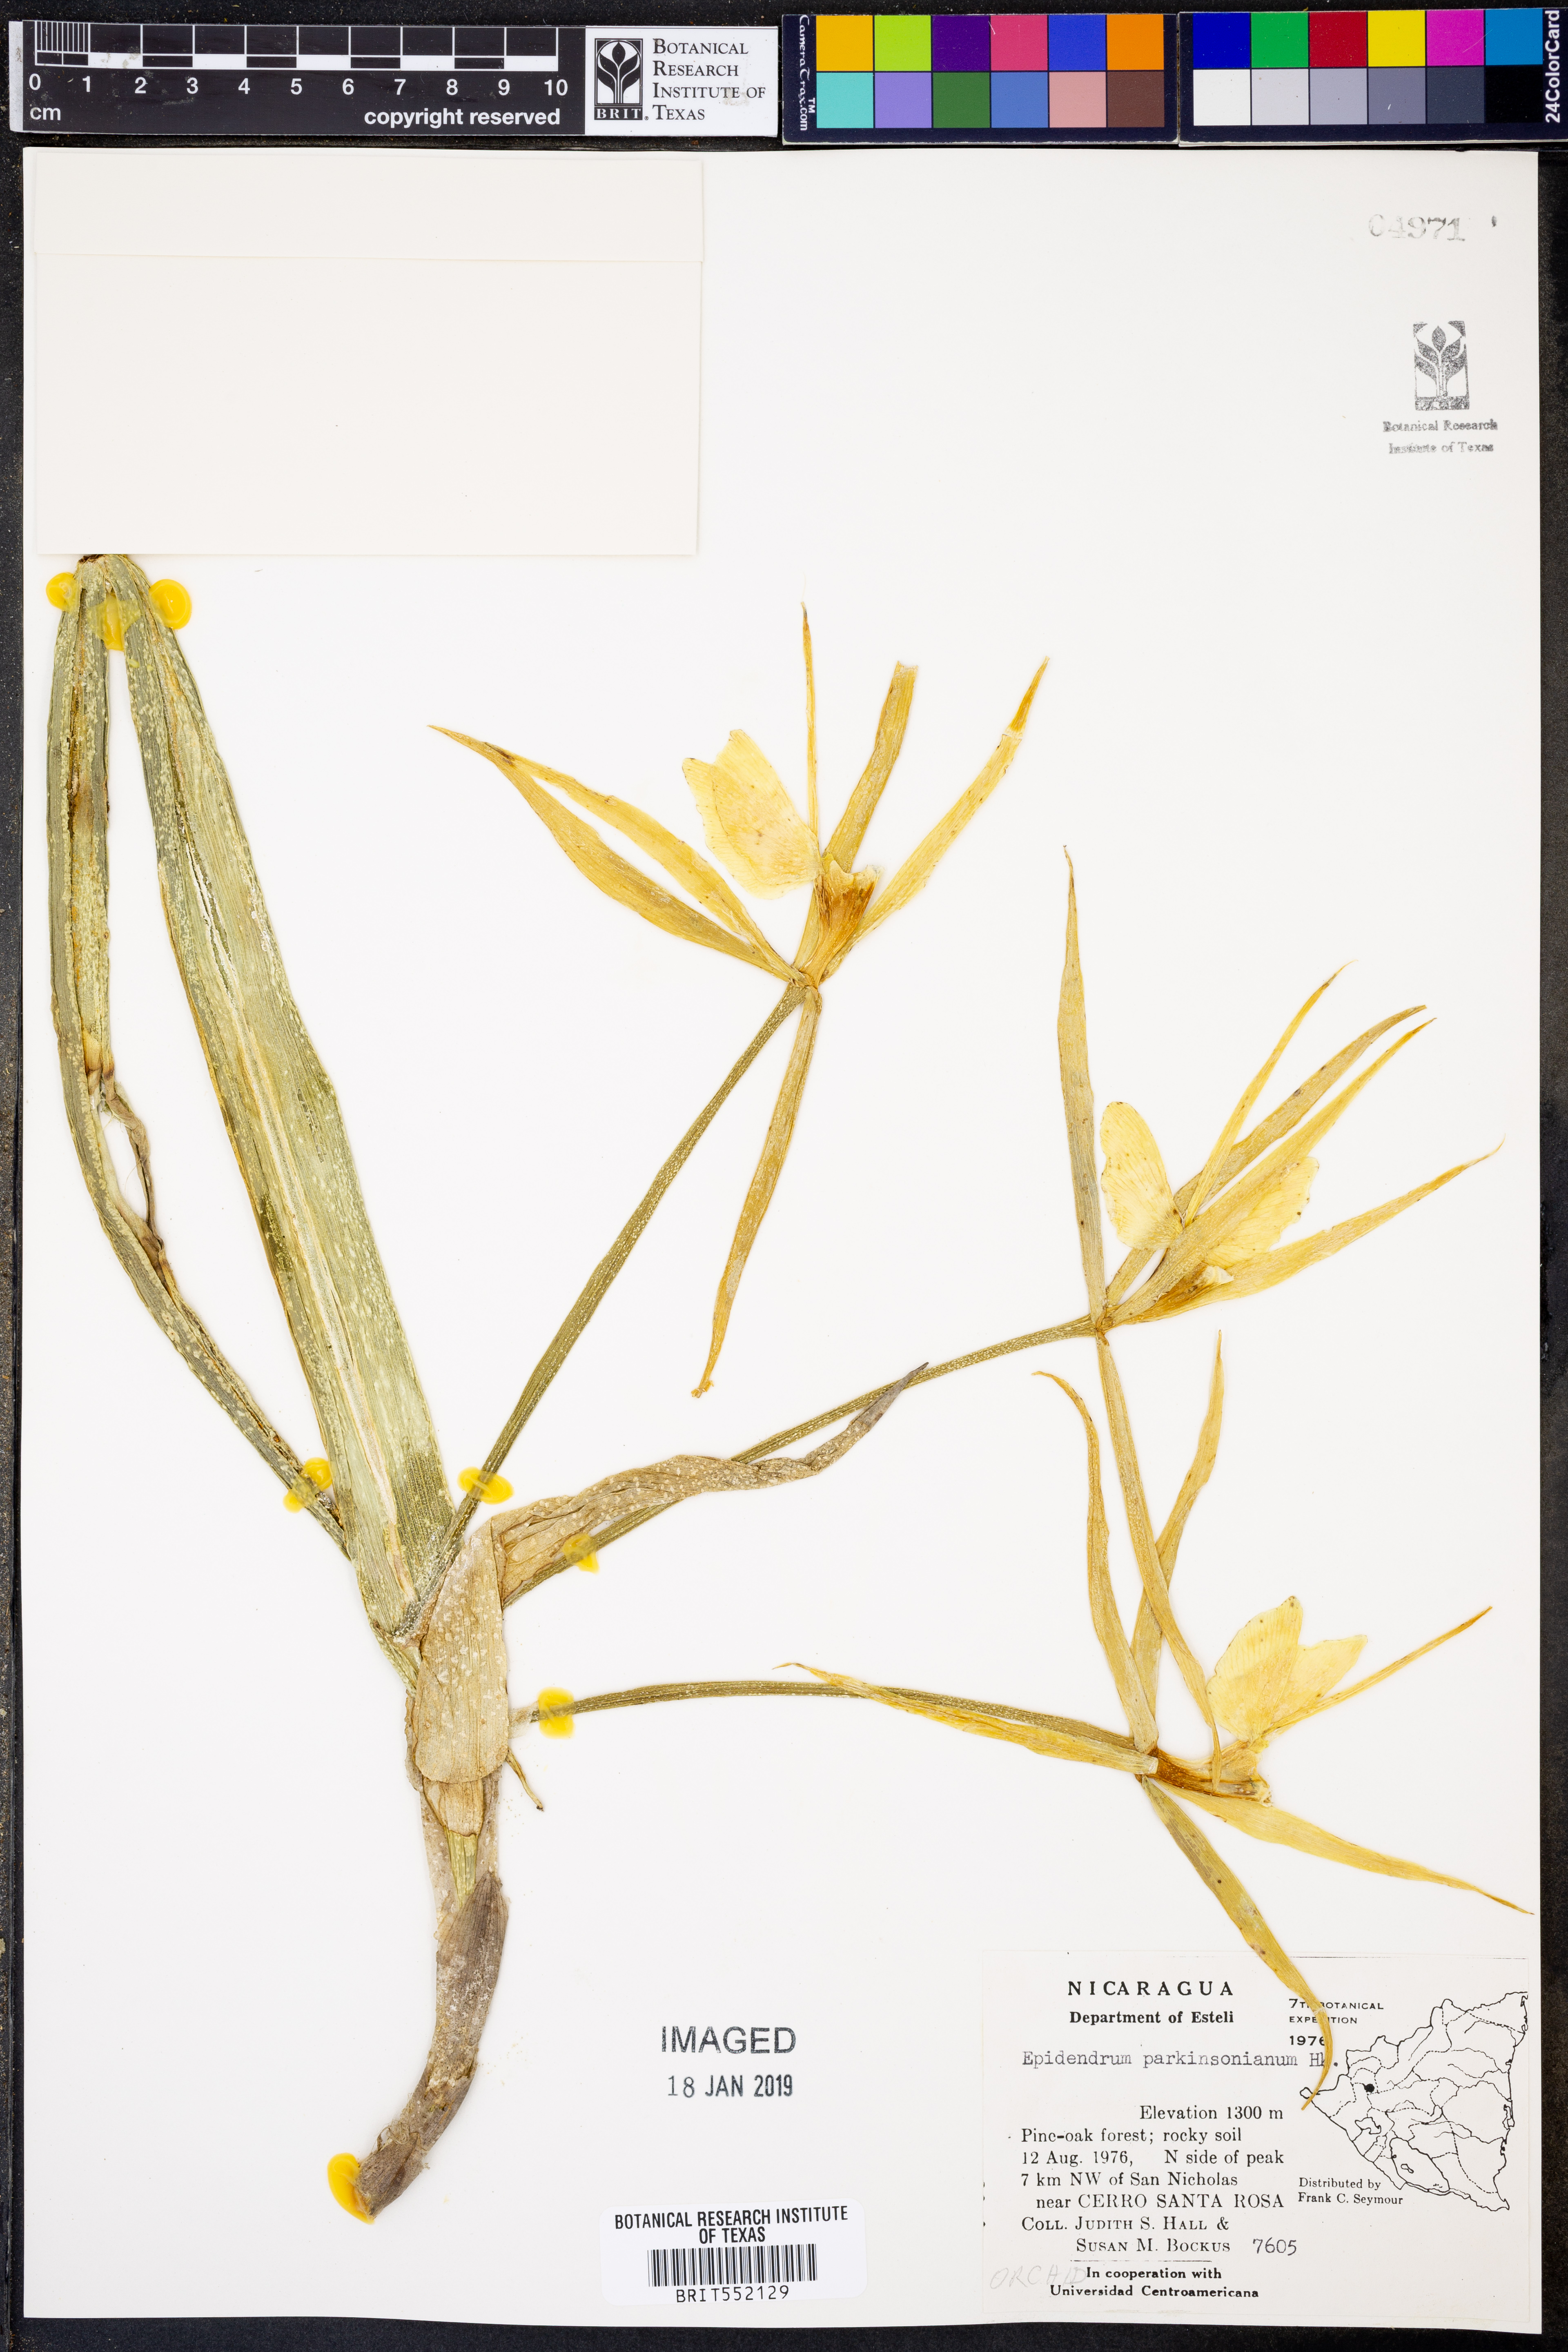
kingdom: Plantae
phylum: Tracheophyta
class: Liliopsida
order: Asparagales
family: Orchidaceae
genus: Epidendrum
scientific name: Epidendrum parkinsonianum
